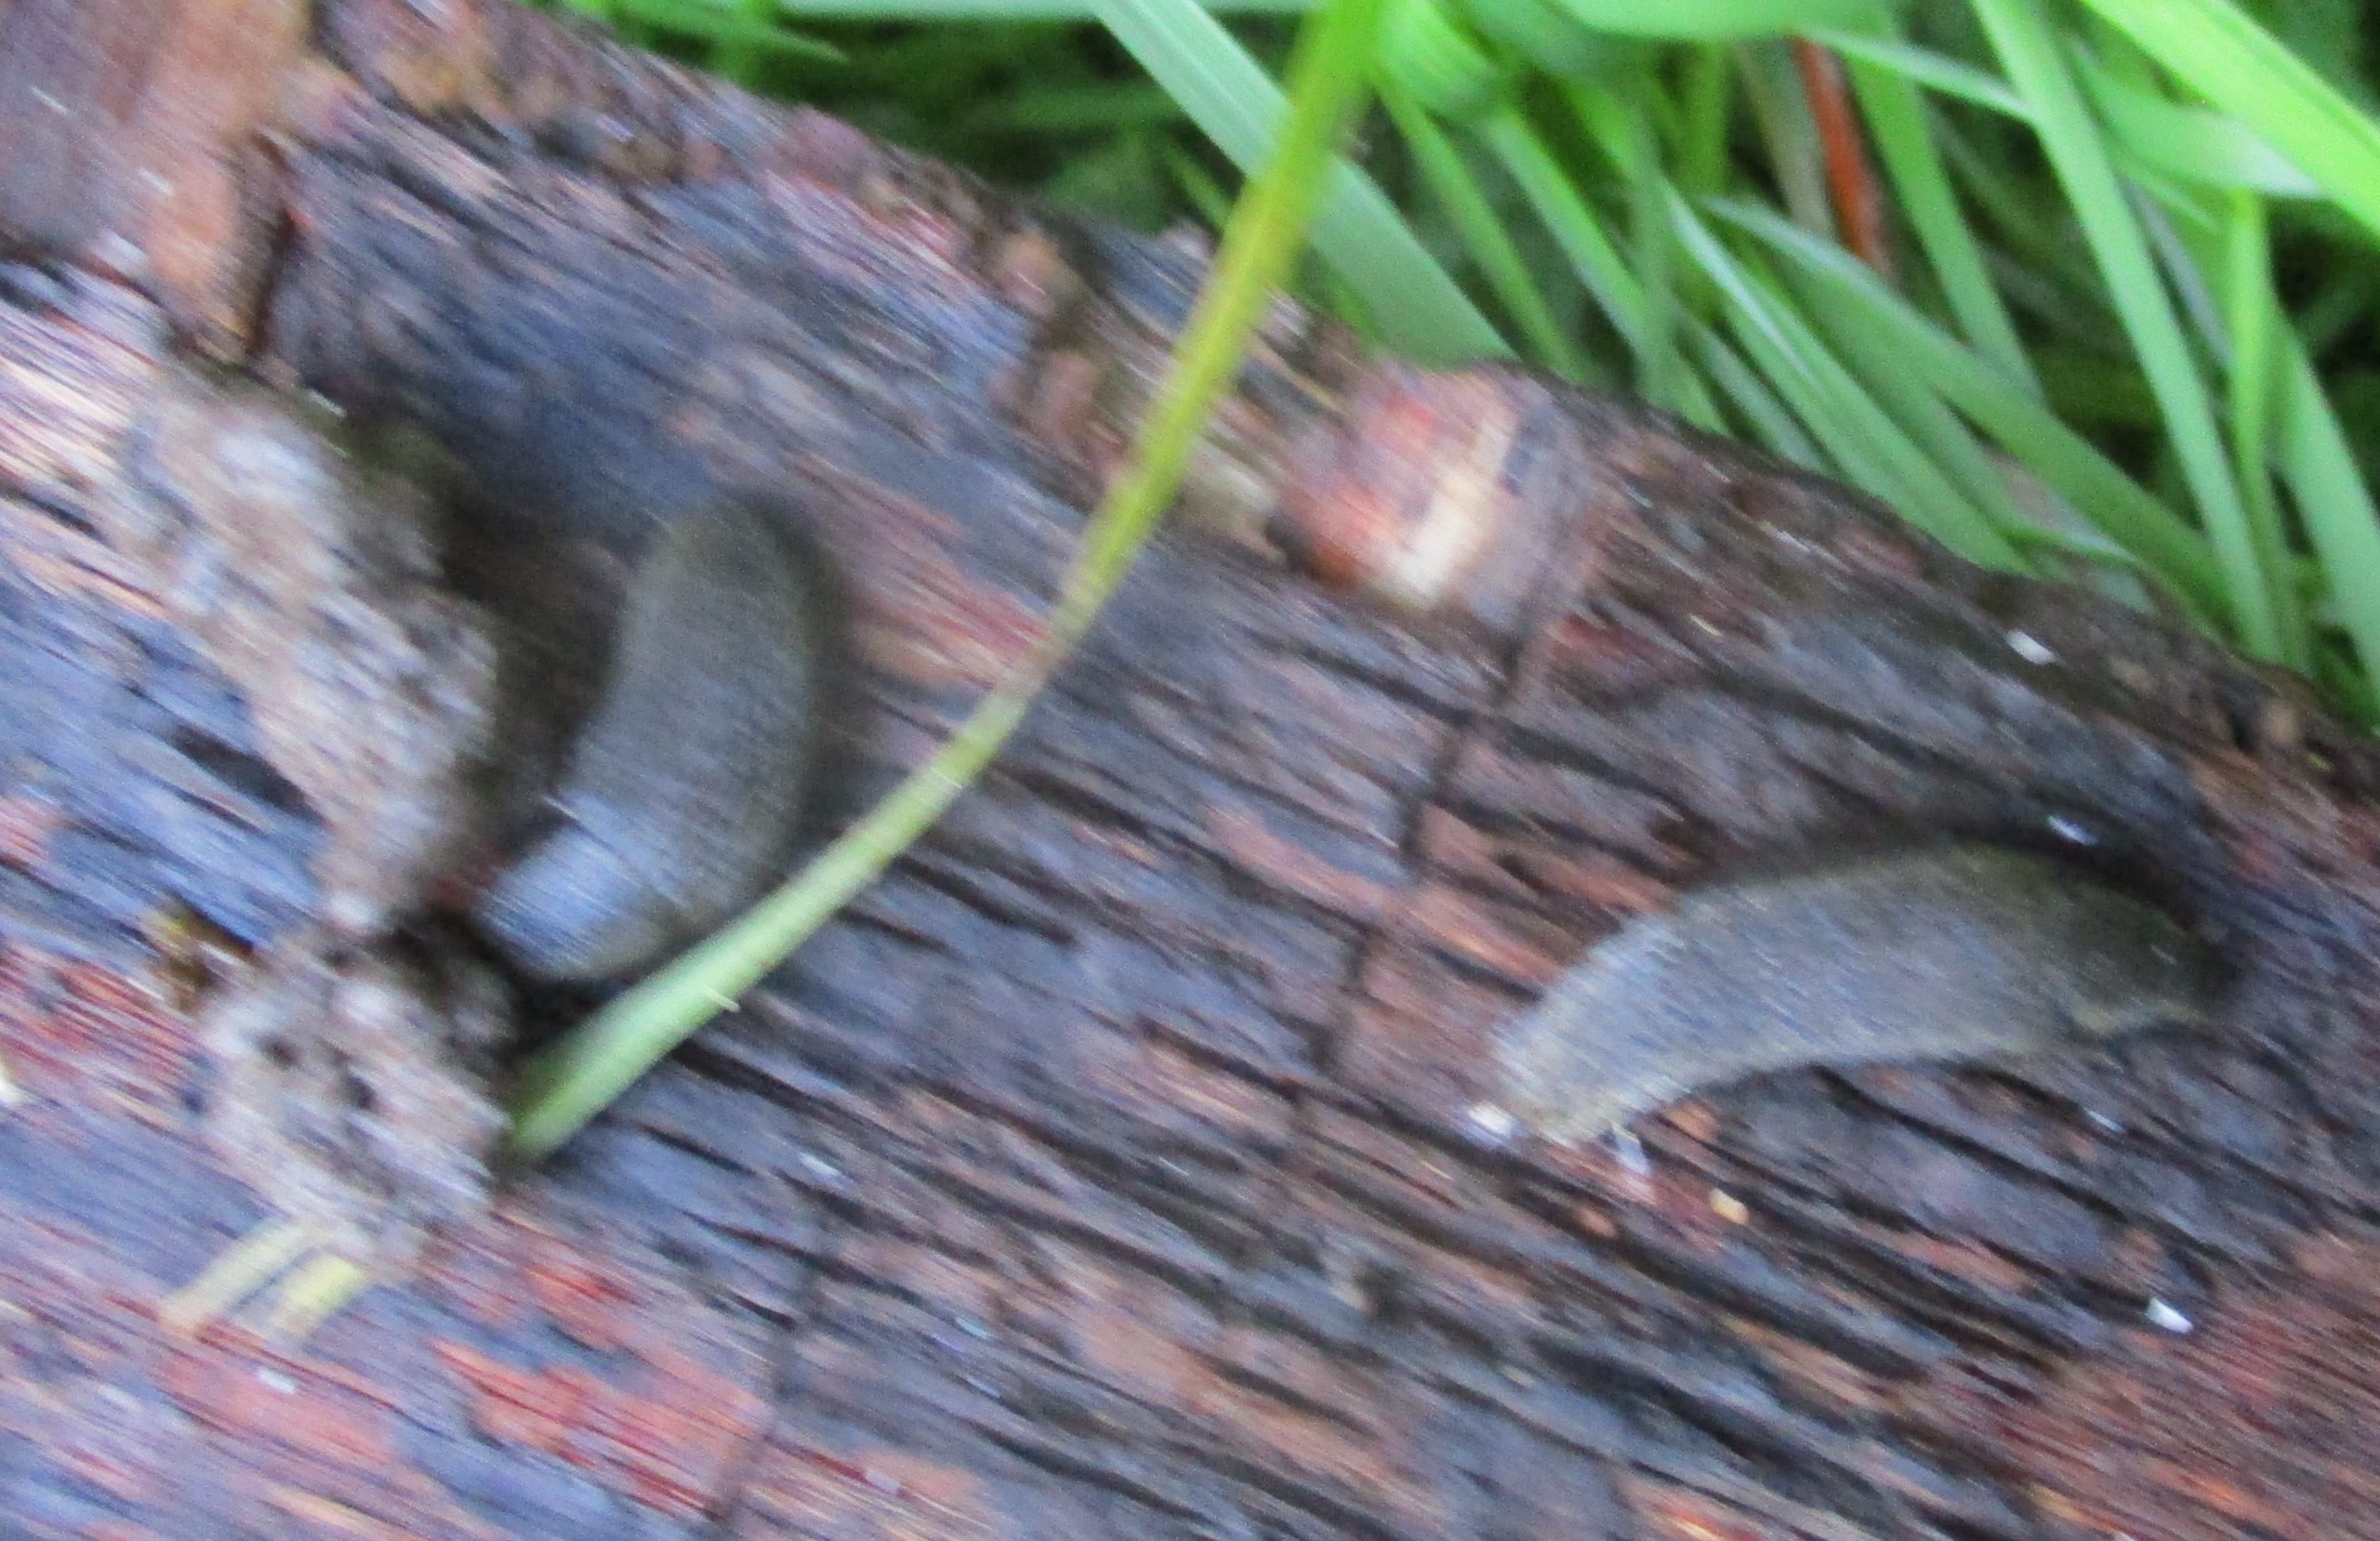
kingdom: Animalia
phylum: Mollusca
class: Gastropoda
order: Stylommatophora
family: Arionidae
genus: Arion
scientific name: Arion vulgaris
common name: Iberisk skovsnegl
